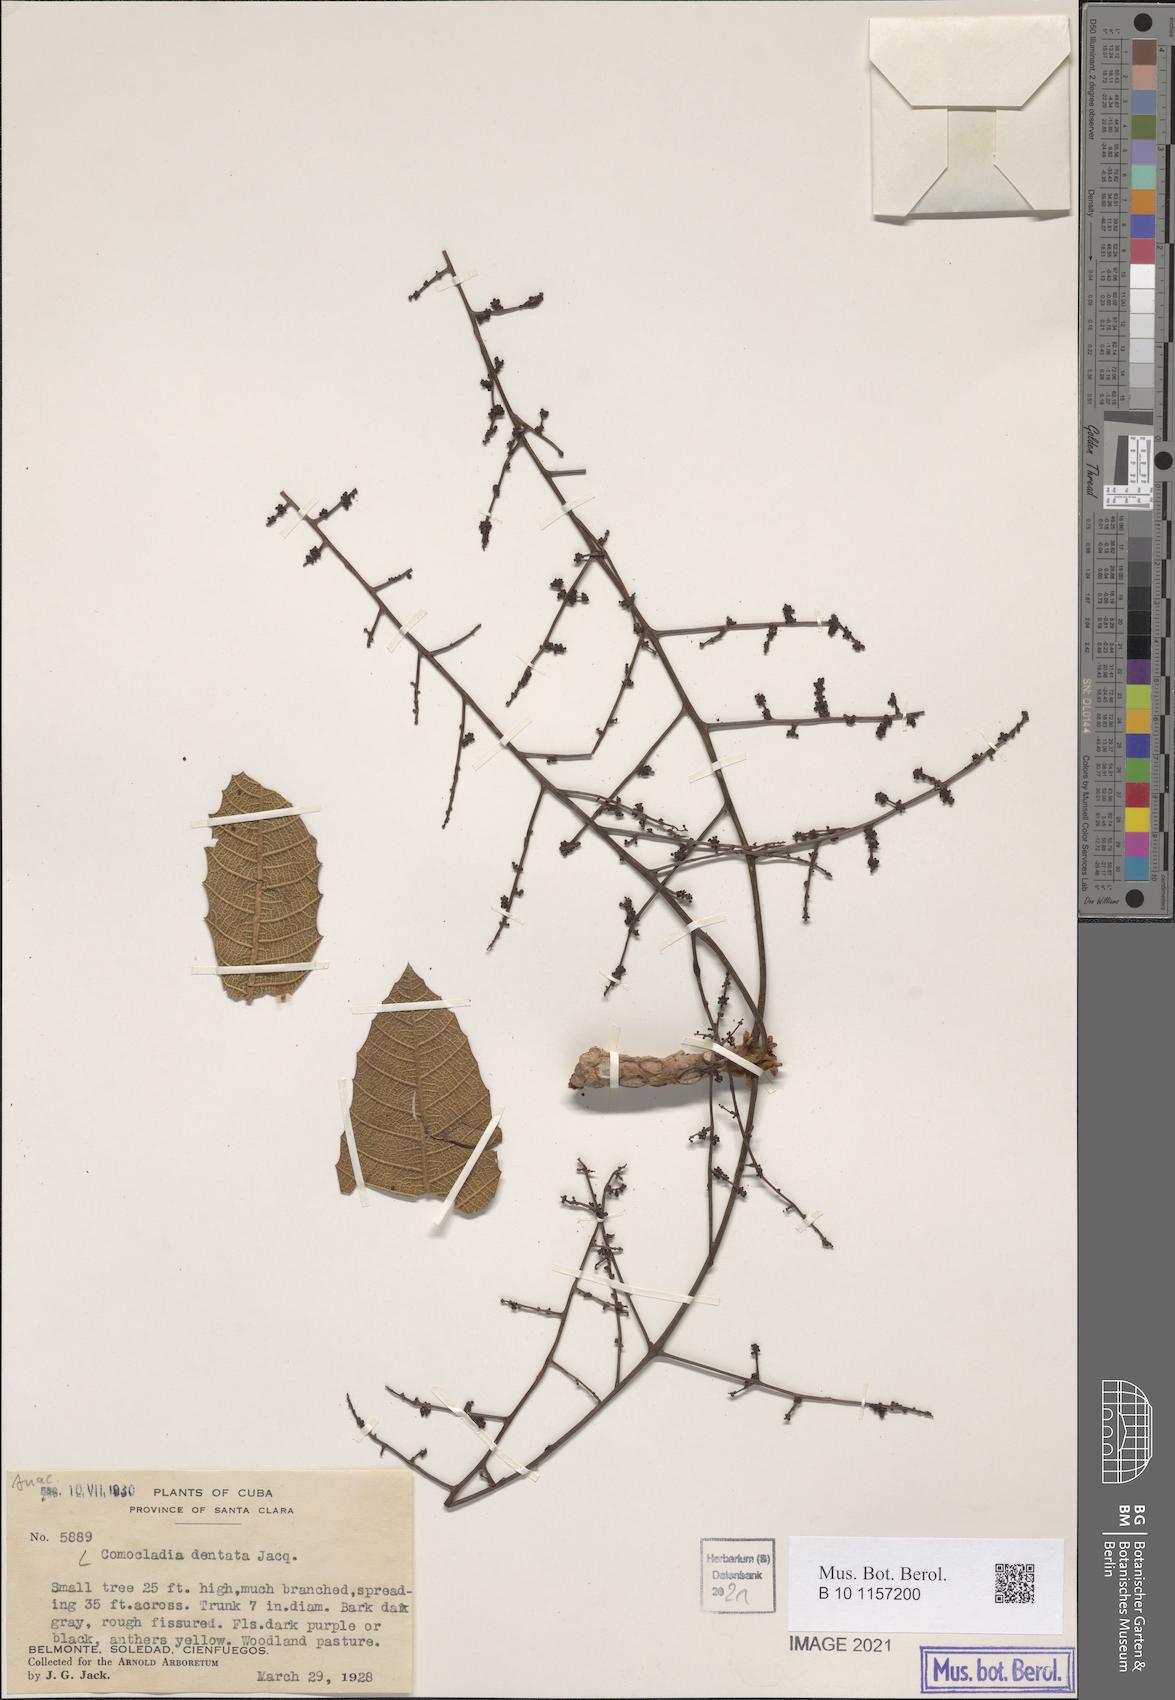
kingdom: Plantae
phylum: Tracheophyta
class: Magnoliopsida
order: Sapindales
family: Anacardiaceae
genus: Comocladia
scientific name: Comocladia dentata
